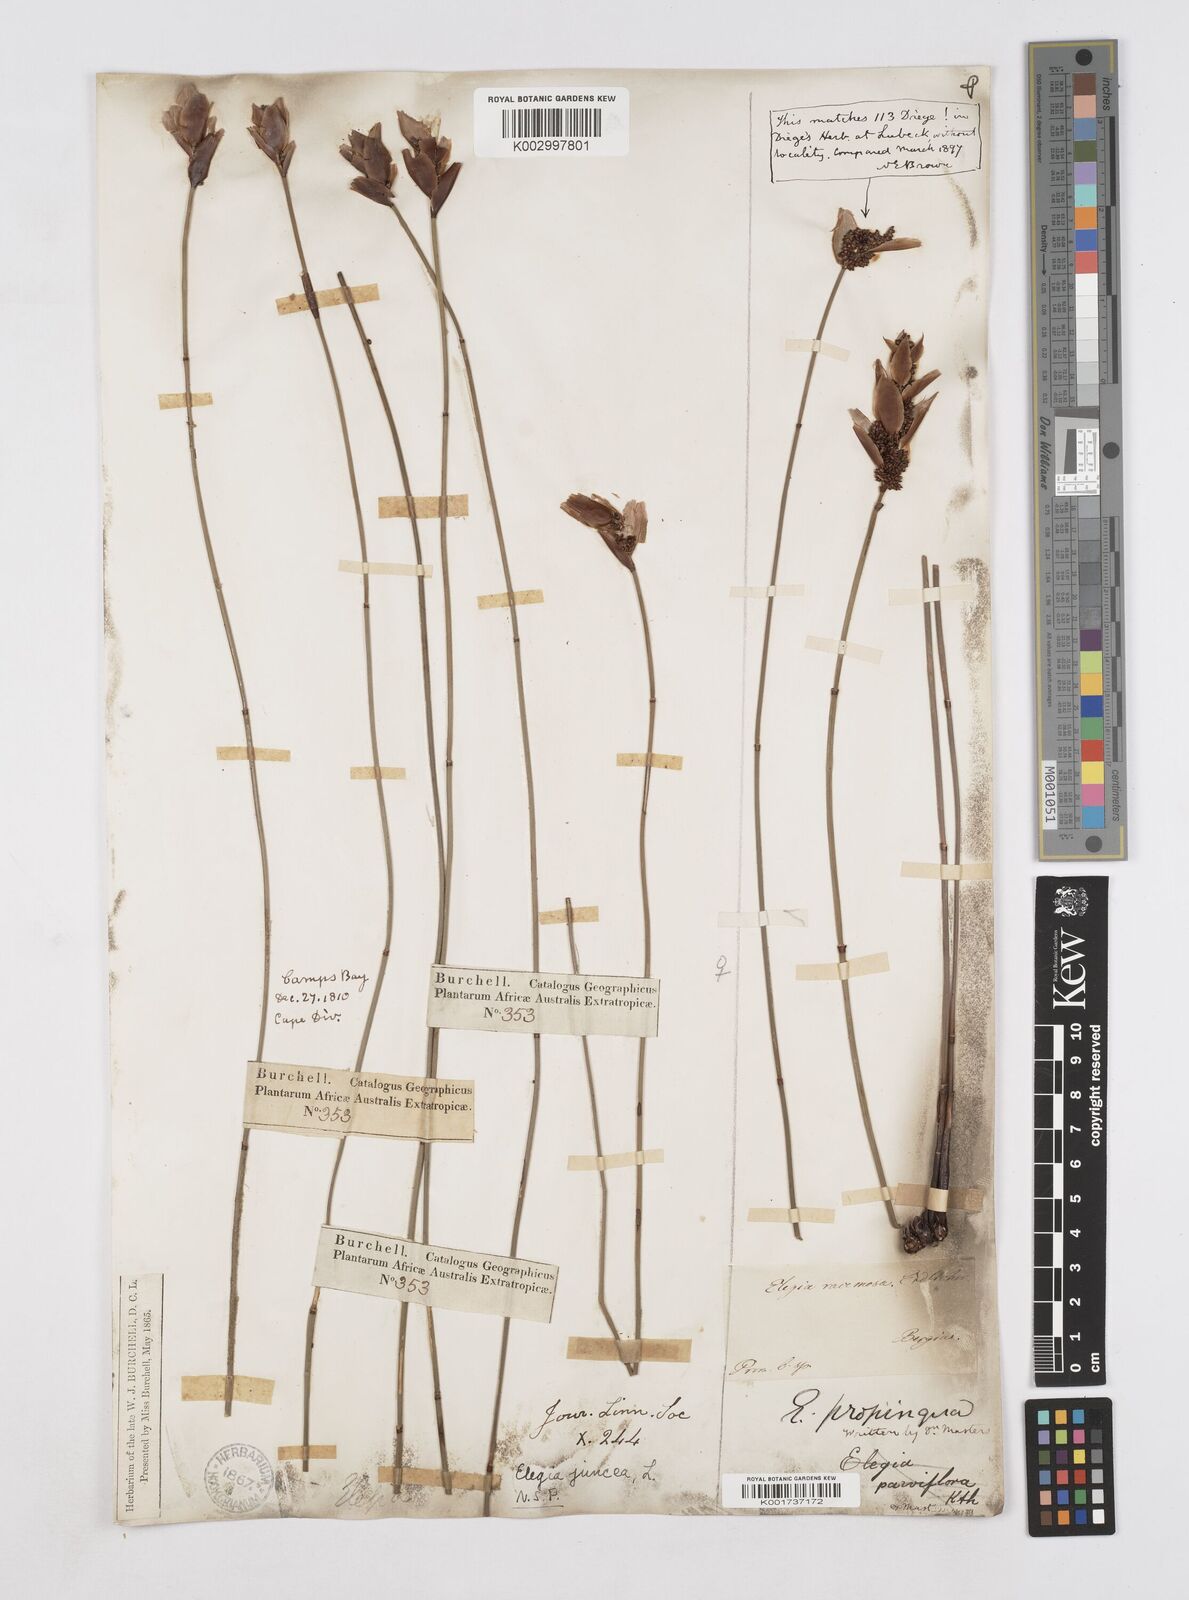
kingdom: Plantae
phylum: Tracheophyta
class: Liliopsida
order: Poales
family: Restionaceae
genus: Elegia
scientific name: Elegia juncea
